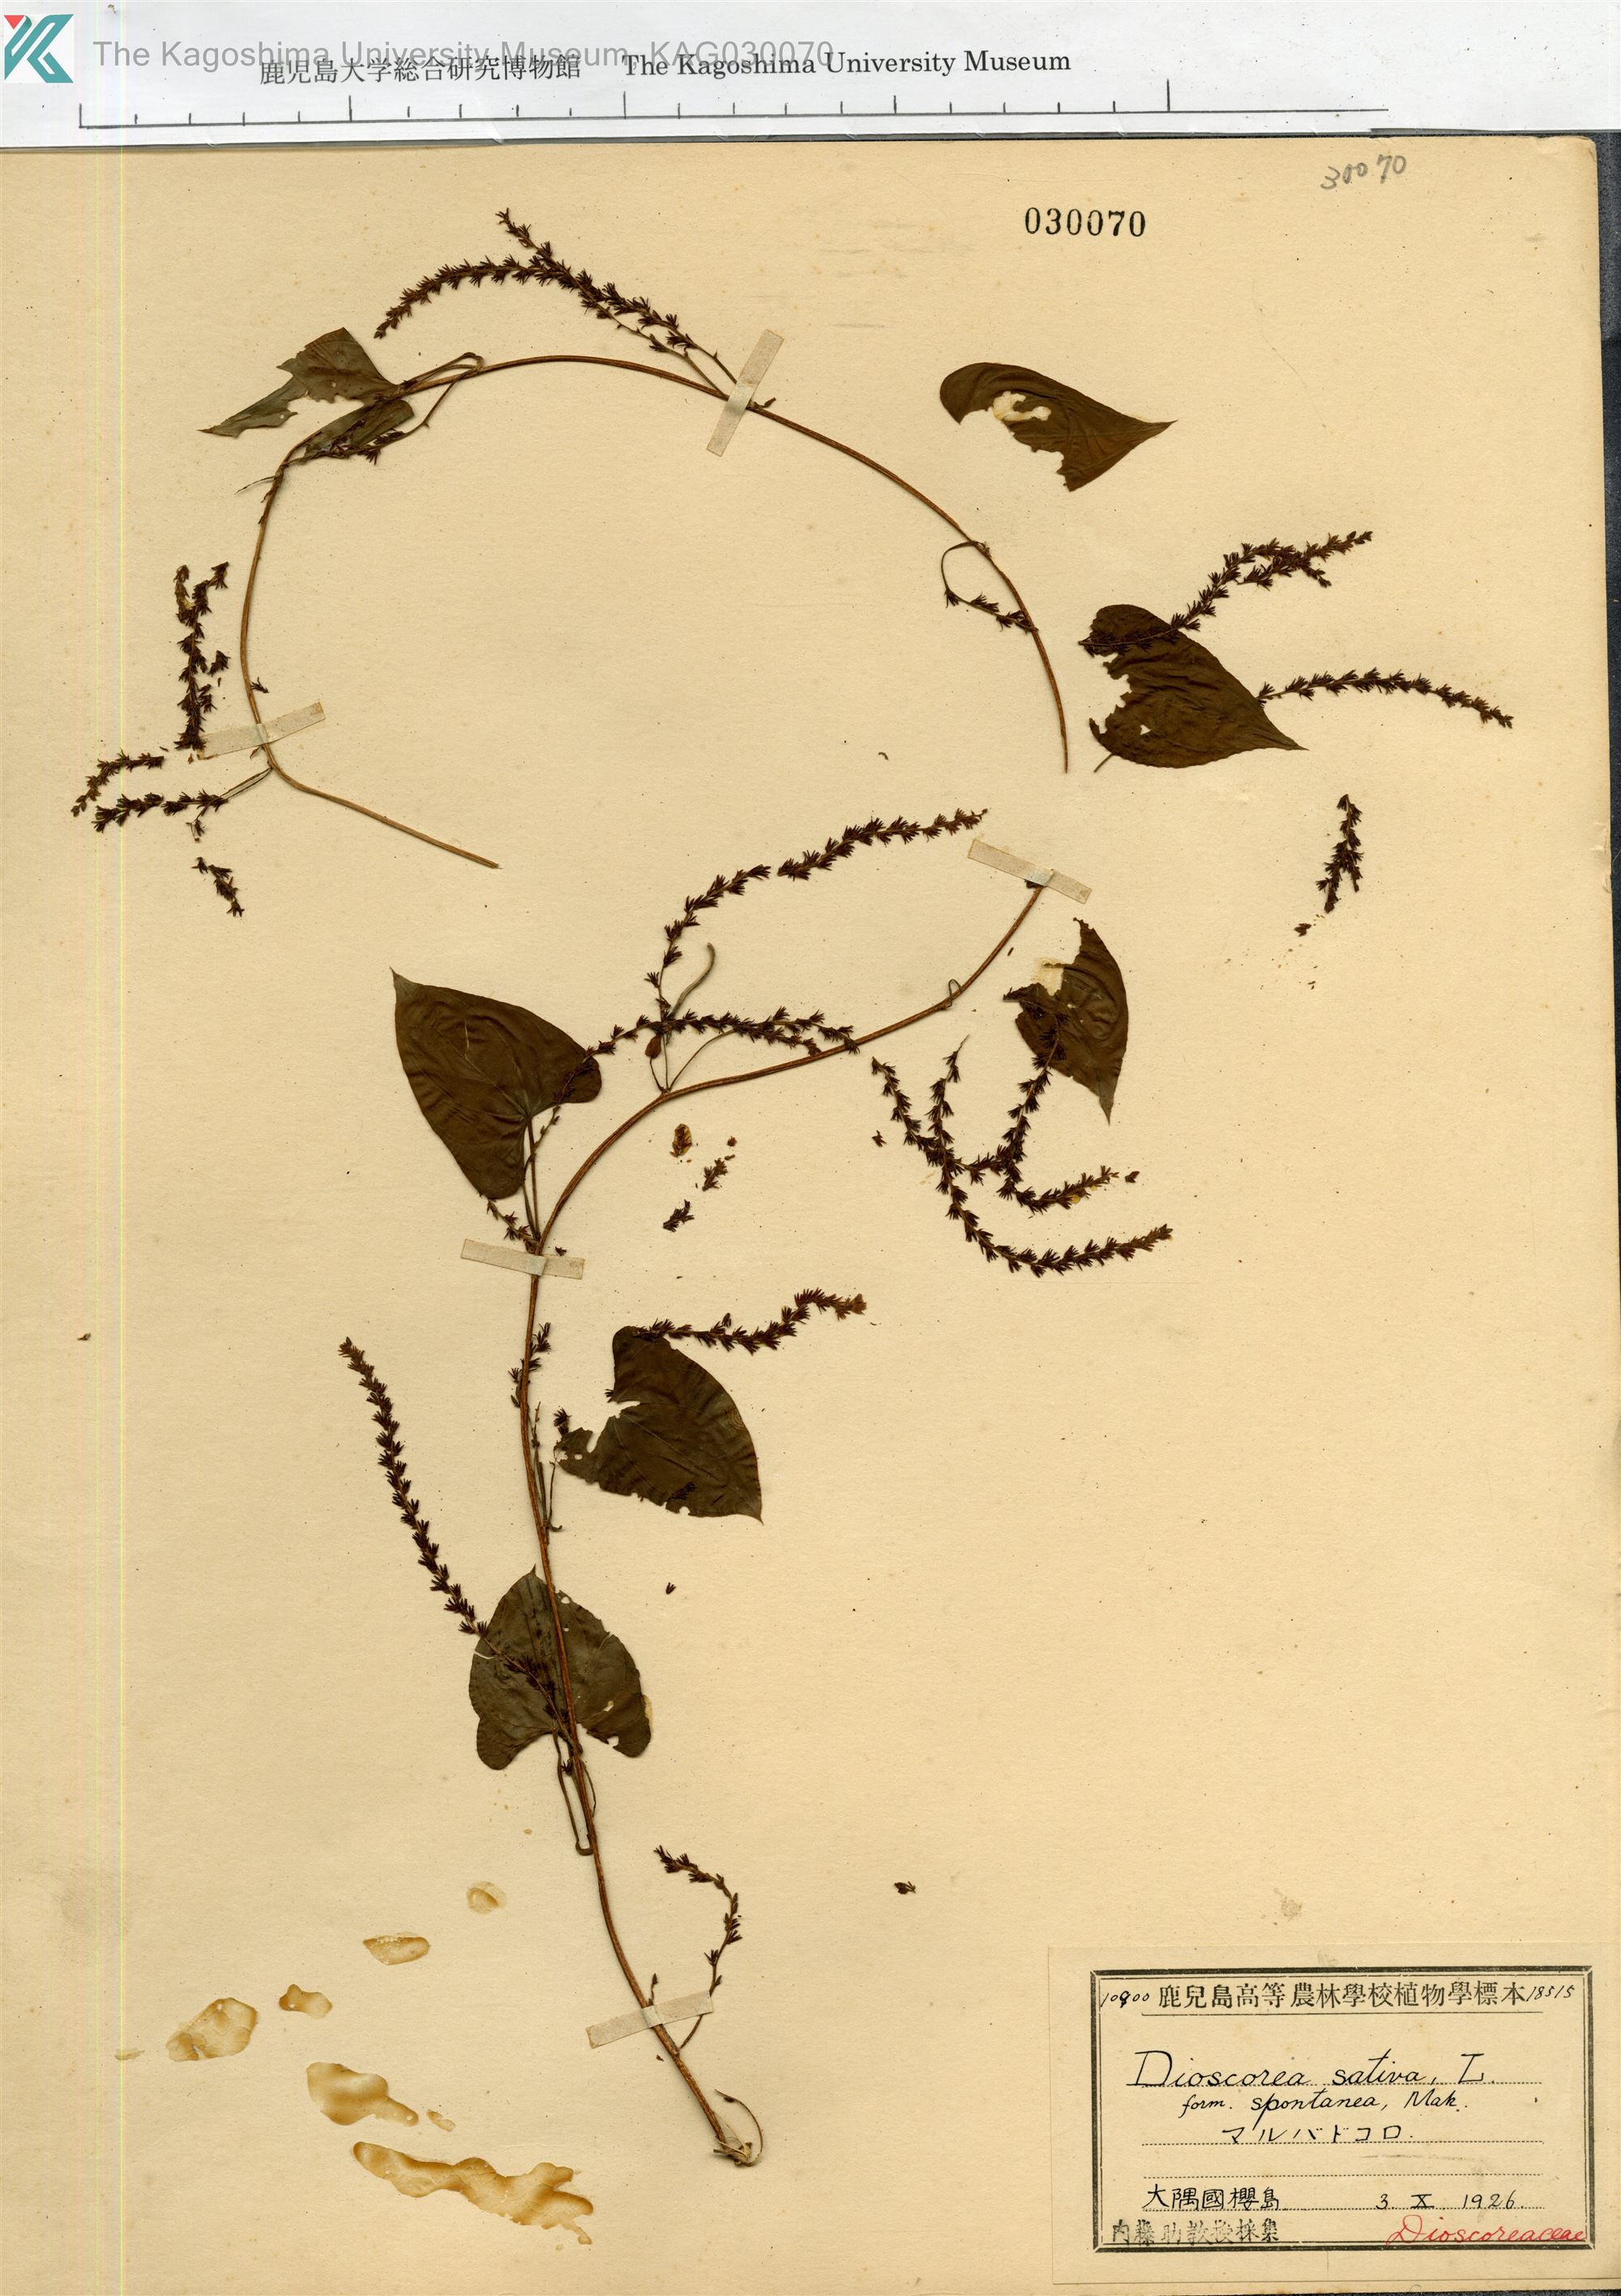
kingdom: Plantae
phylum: Tracheophyta
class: Liliopsida
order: Dioscoreales
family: Dioscoreaceae
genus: Dioscorea
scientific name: Dioscorea bulbifera
